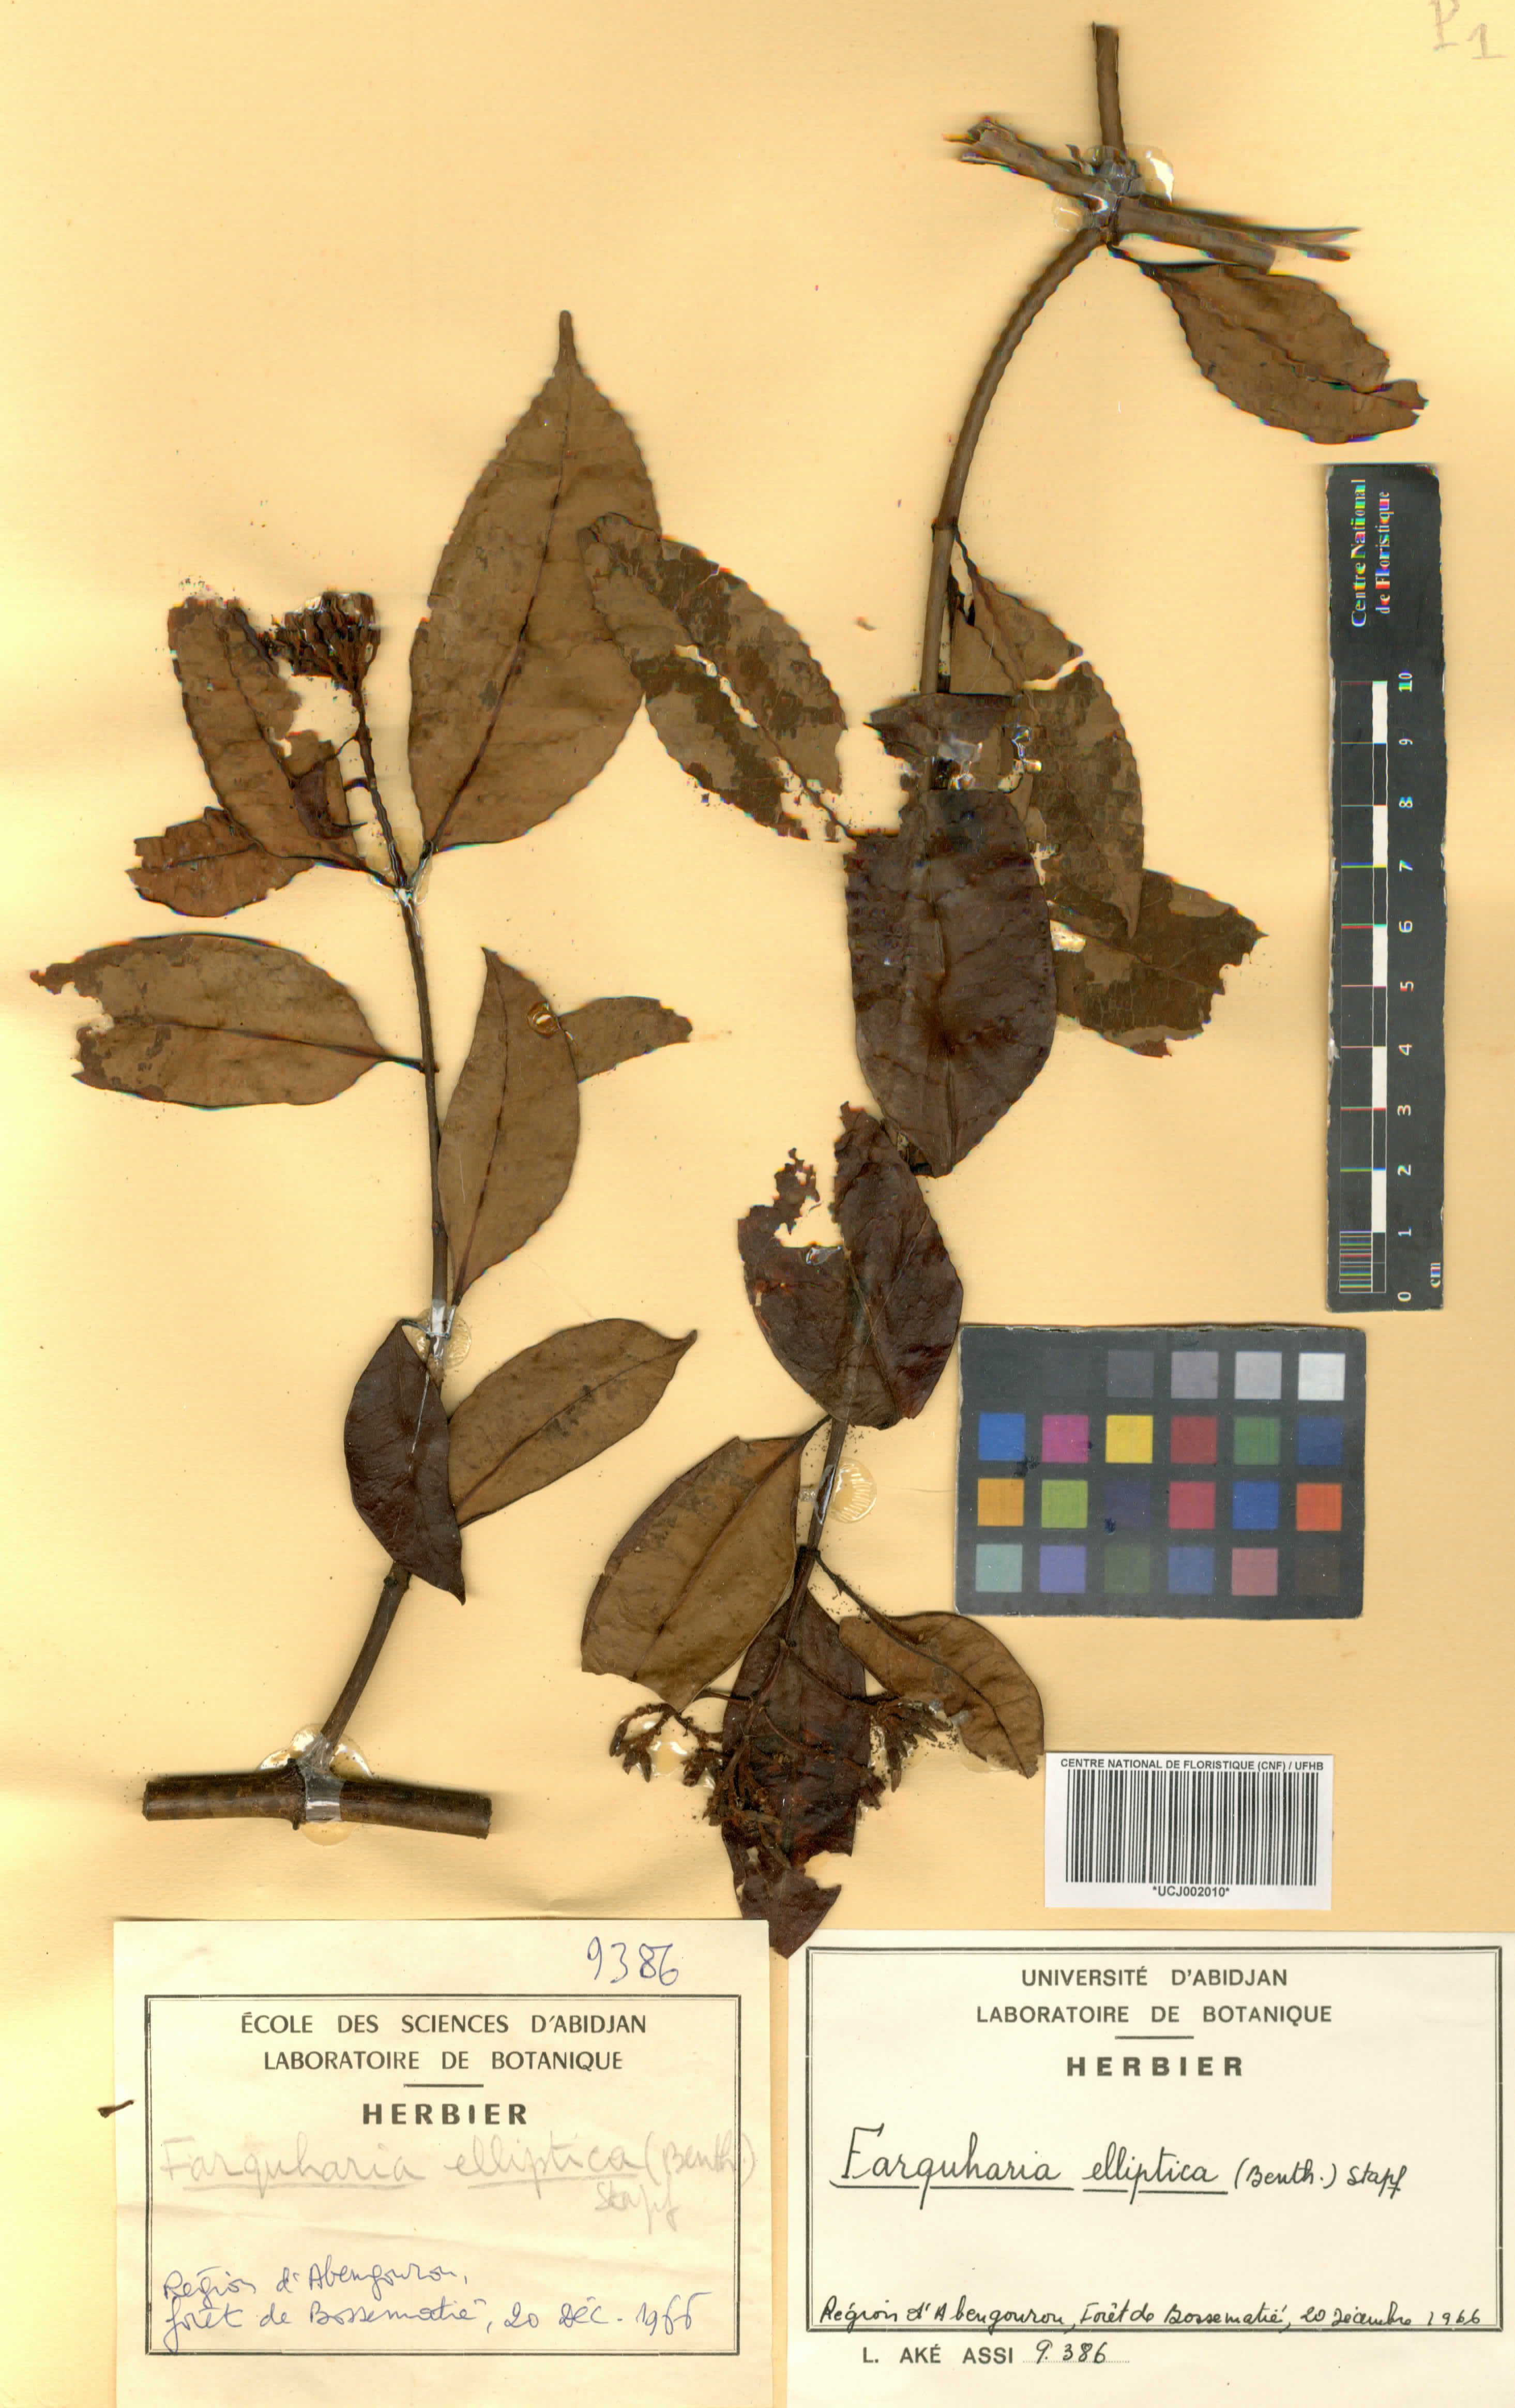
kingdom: Plantae
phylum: Tracheophyta
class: Magnoliopsida
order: Gentianales
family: Apocynaceae
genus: Farquharia
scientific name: Farquharia elliptica
